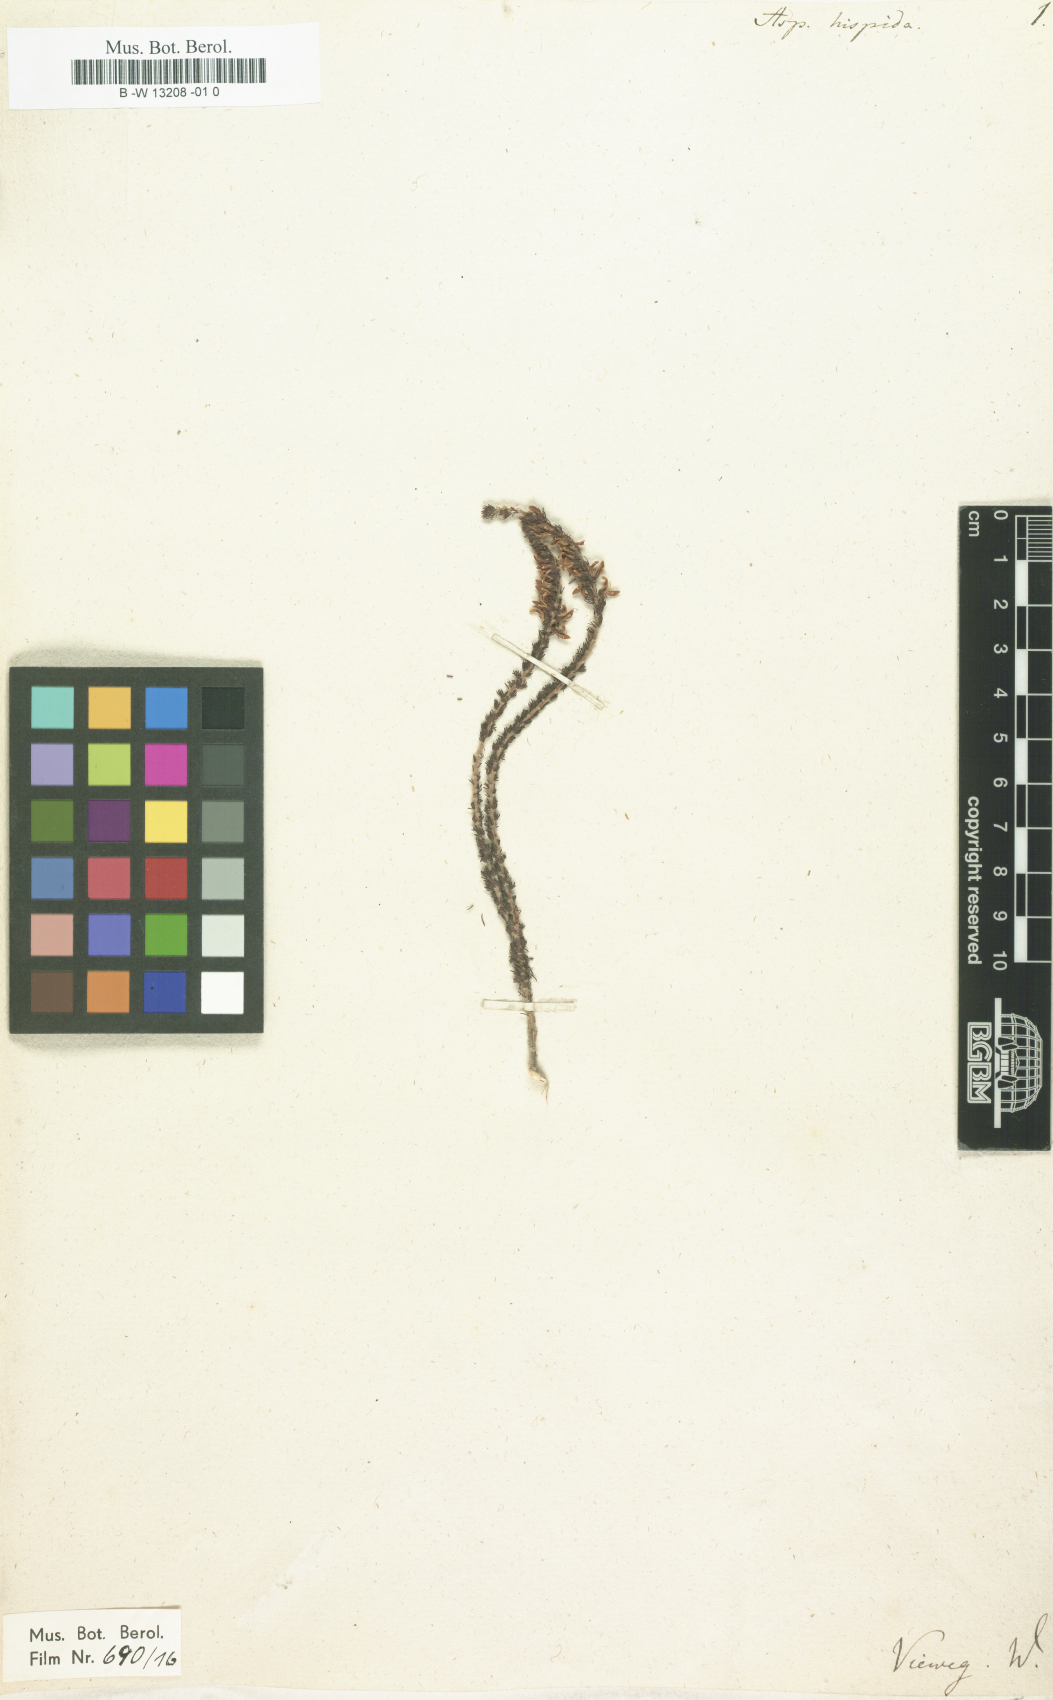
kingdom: Plantae
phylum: Tracheophyta
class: Magnoliopsida
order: Fabales
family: Fabaceae
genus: Aspalathus
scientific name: Aspalathus hispida
